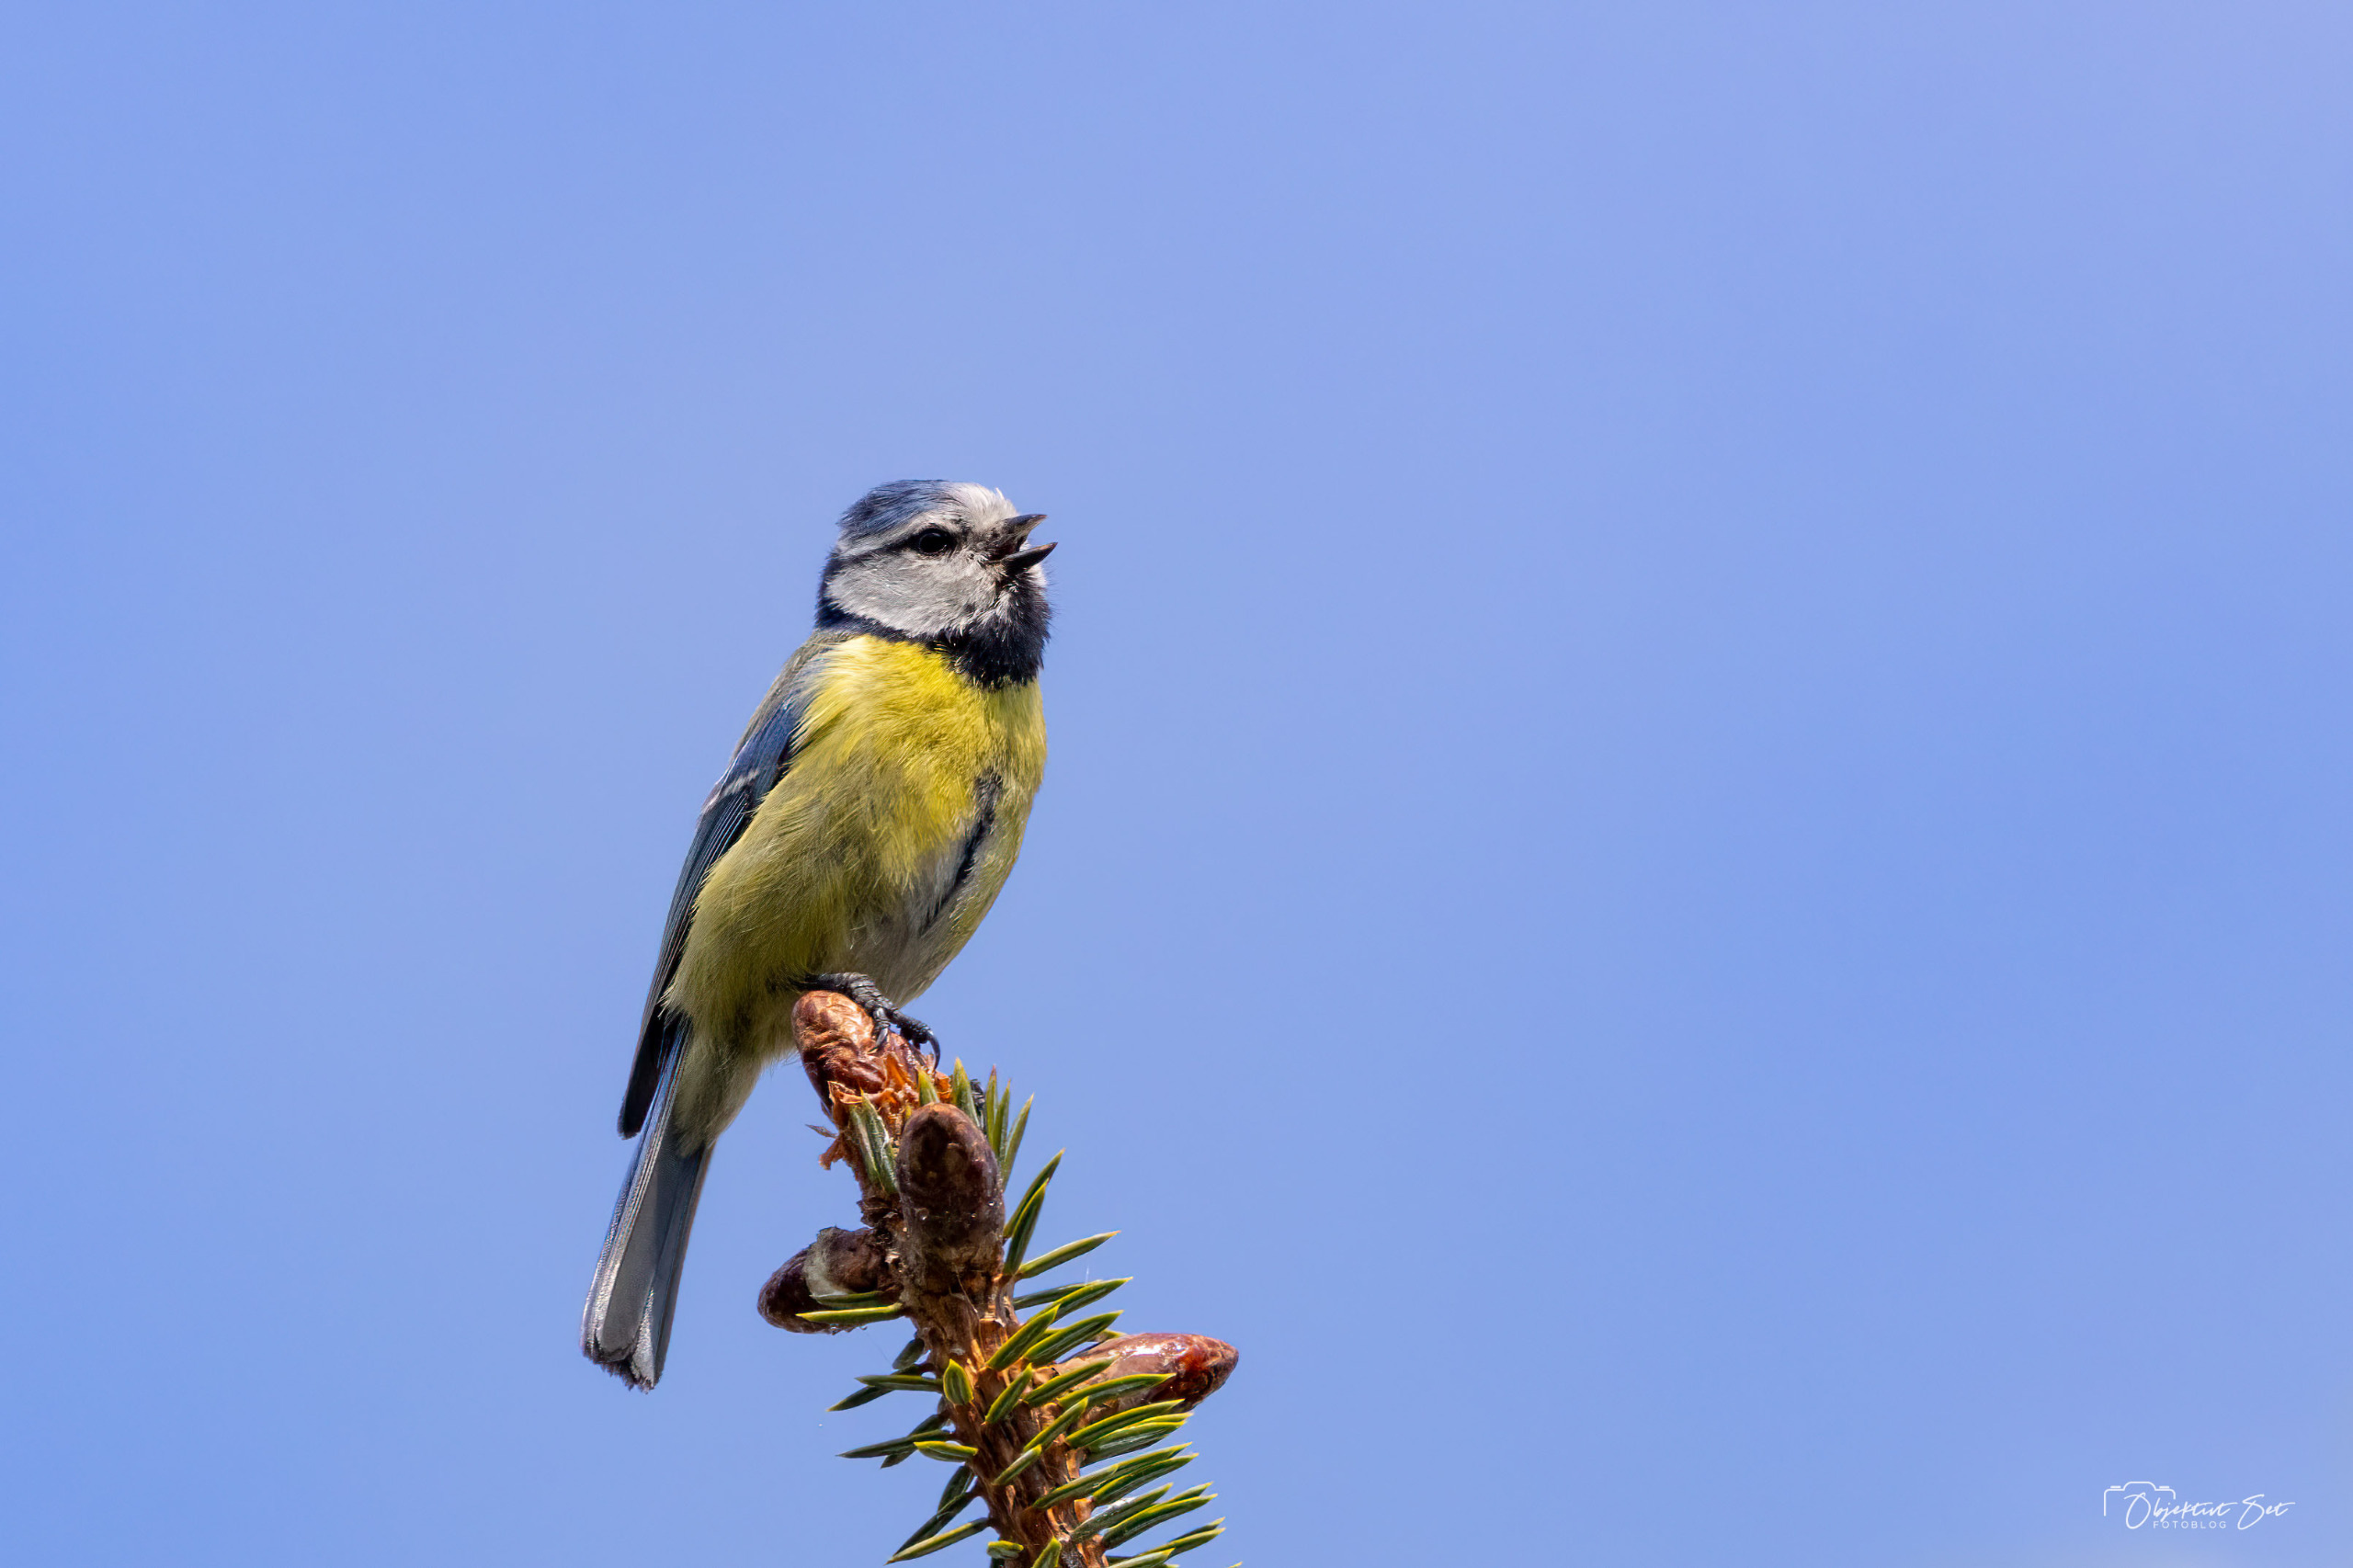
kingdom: Animalia
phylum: Chordata
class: Aves
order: Passeriformes
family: Paridae
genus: Cyanistes
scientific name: Cyanistes caeruleus
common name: Blåmejse
